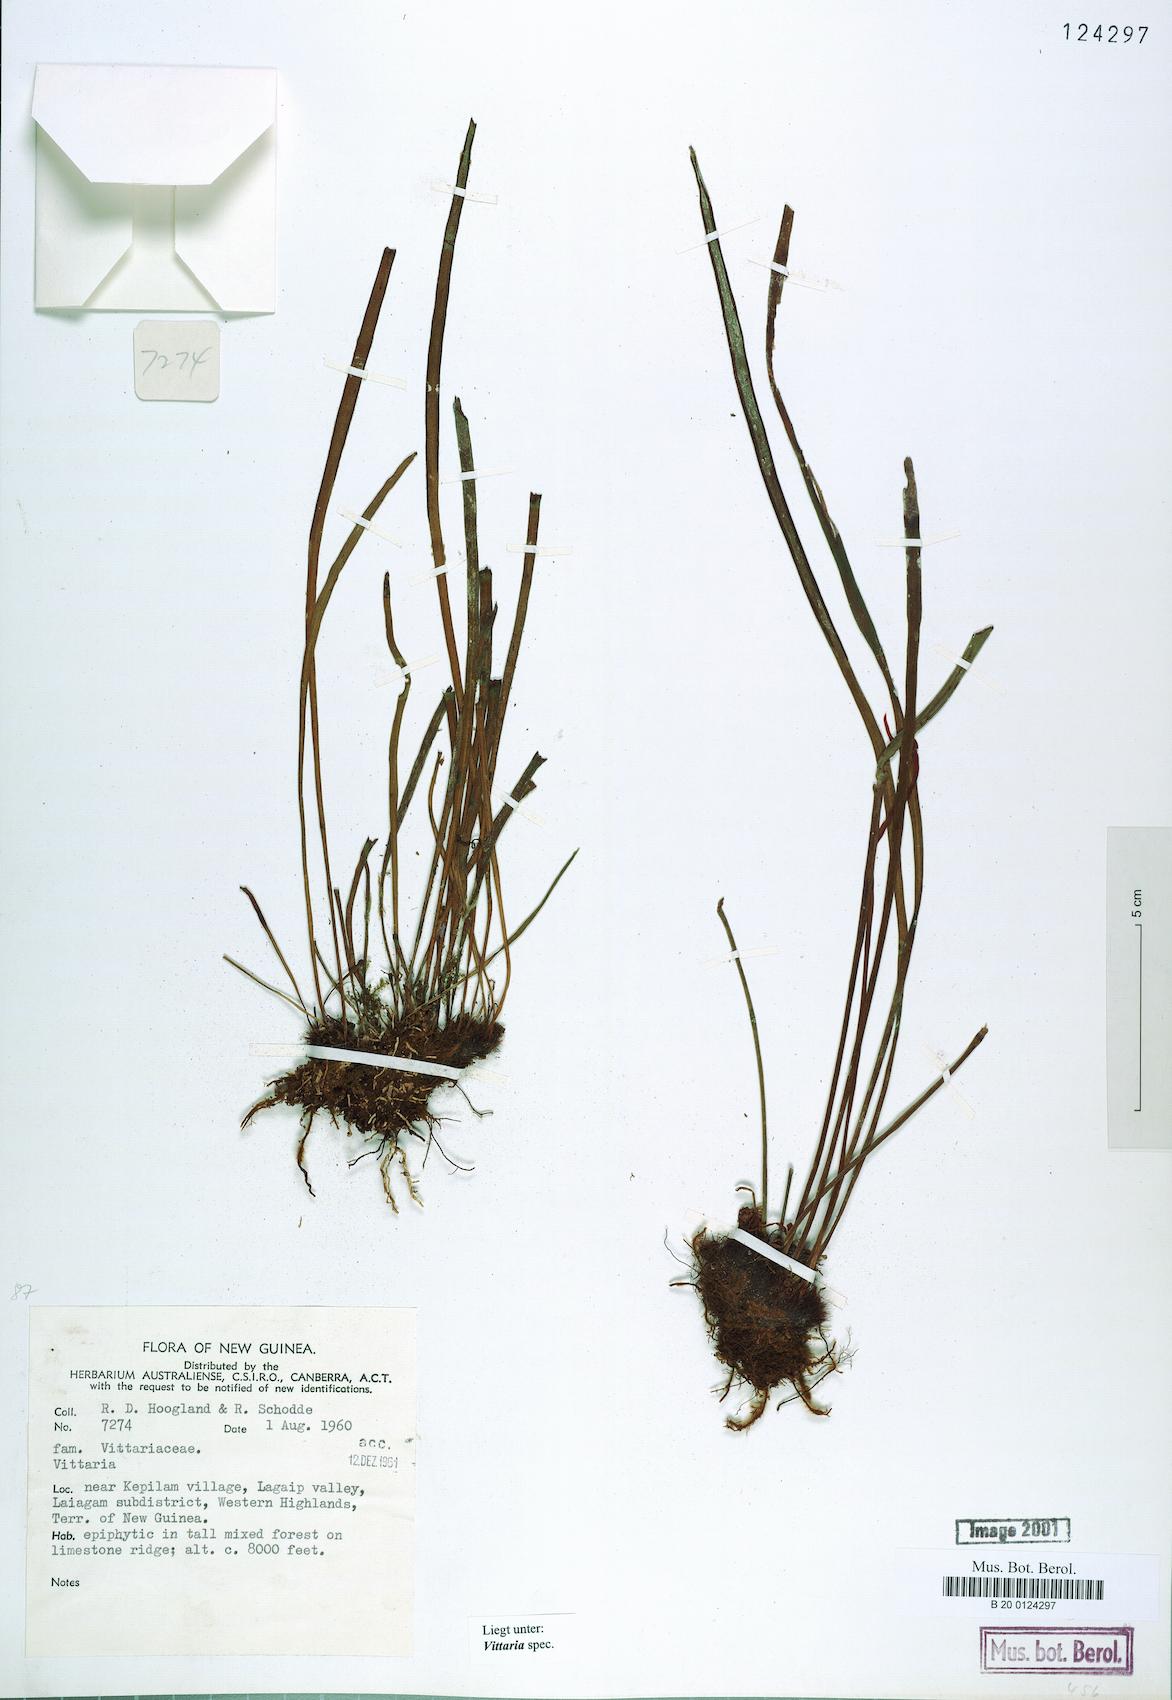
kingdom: Plantae
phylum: Tracheophyta
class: Polypodiopsida
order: Polypodiales
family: Pteridaceae
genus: Vittaria
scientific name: Vittaria
